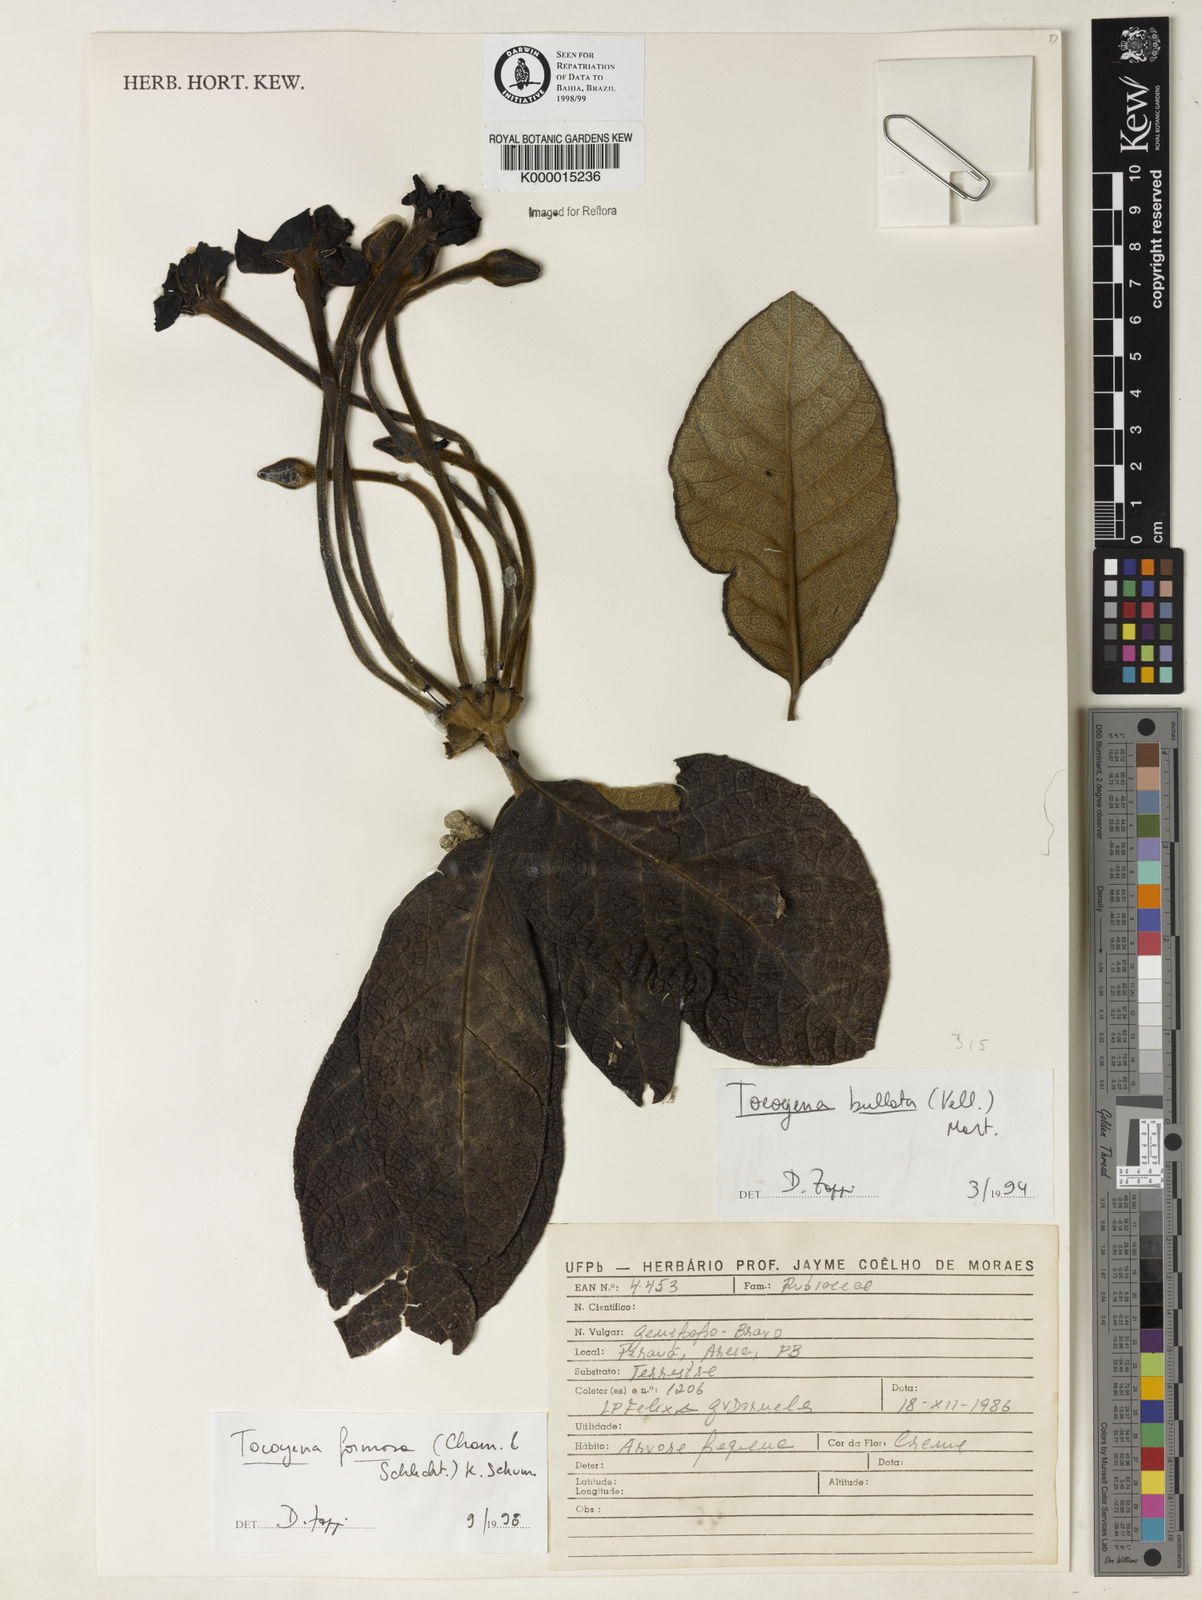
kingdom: Plantae
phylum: Tracheophyta
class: Magnoliopsida
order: Gentianales
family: Rubiaceae
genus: Tocoyena
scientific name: Tocoyena formosa
